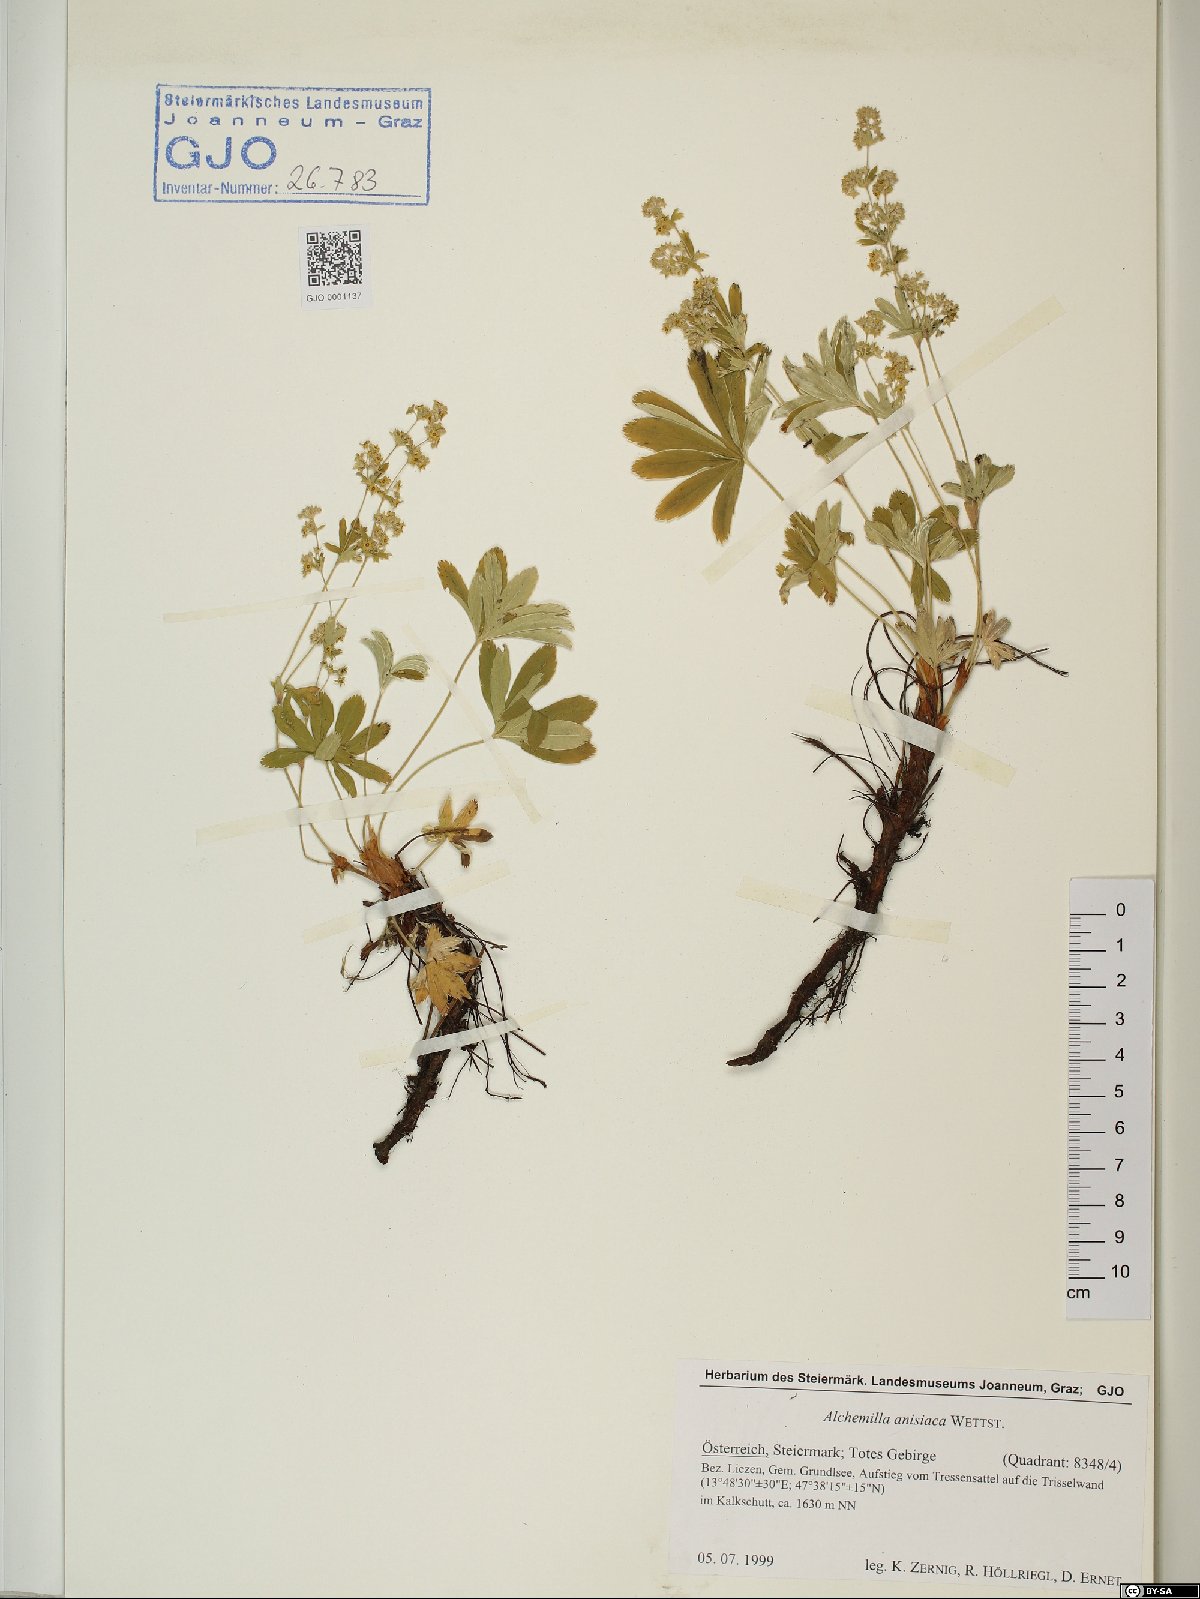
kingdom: Plantae
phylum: Tracheophyta
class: Magnoliopsida
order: Rosales
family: Rosaceae
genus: Alchemilla
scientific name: Alchemilla anisiaca
